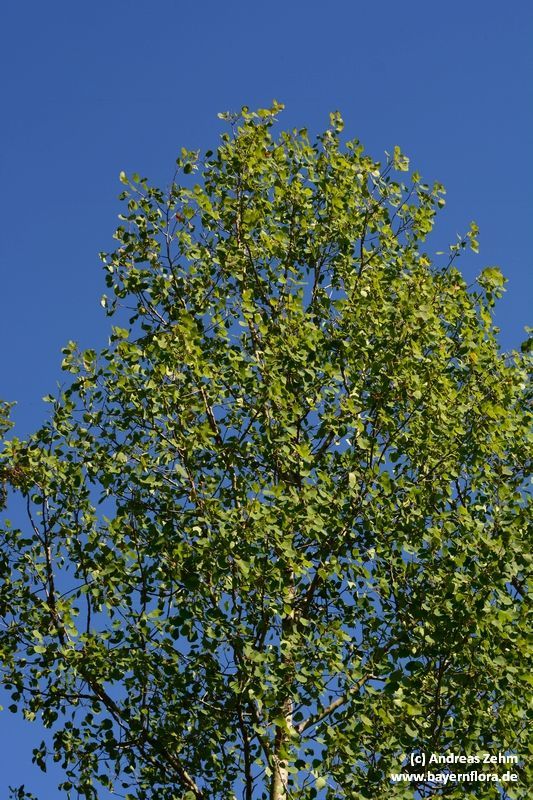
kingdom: Plantae
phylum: Tracheophyta
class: Magnoliopsida
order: Malpighiales
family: Salicaceae
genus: Populus
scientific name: Populus tremula
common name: European aspen
